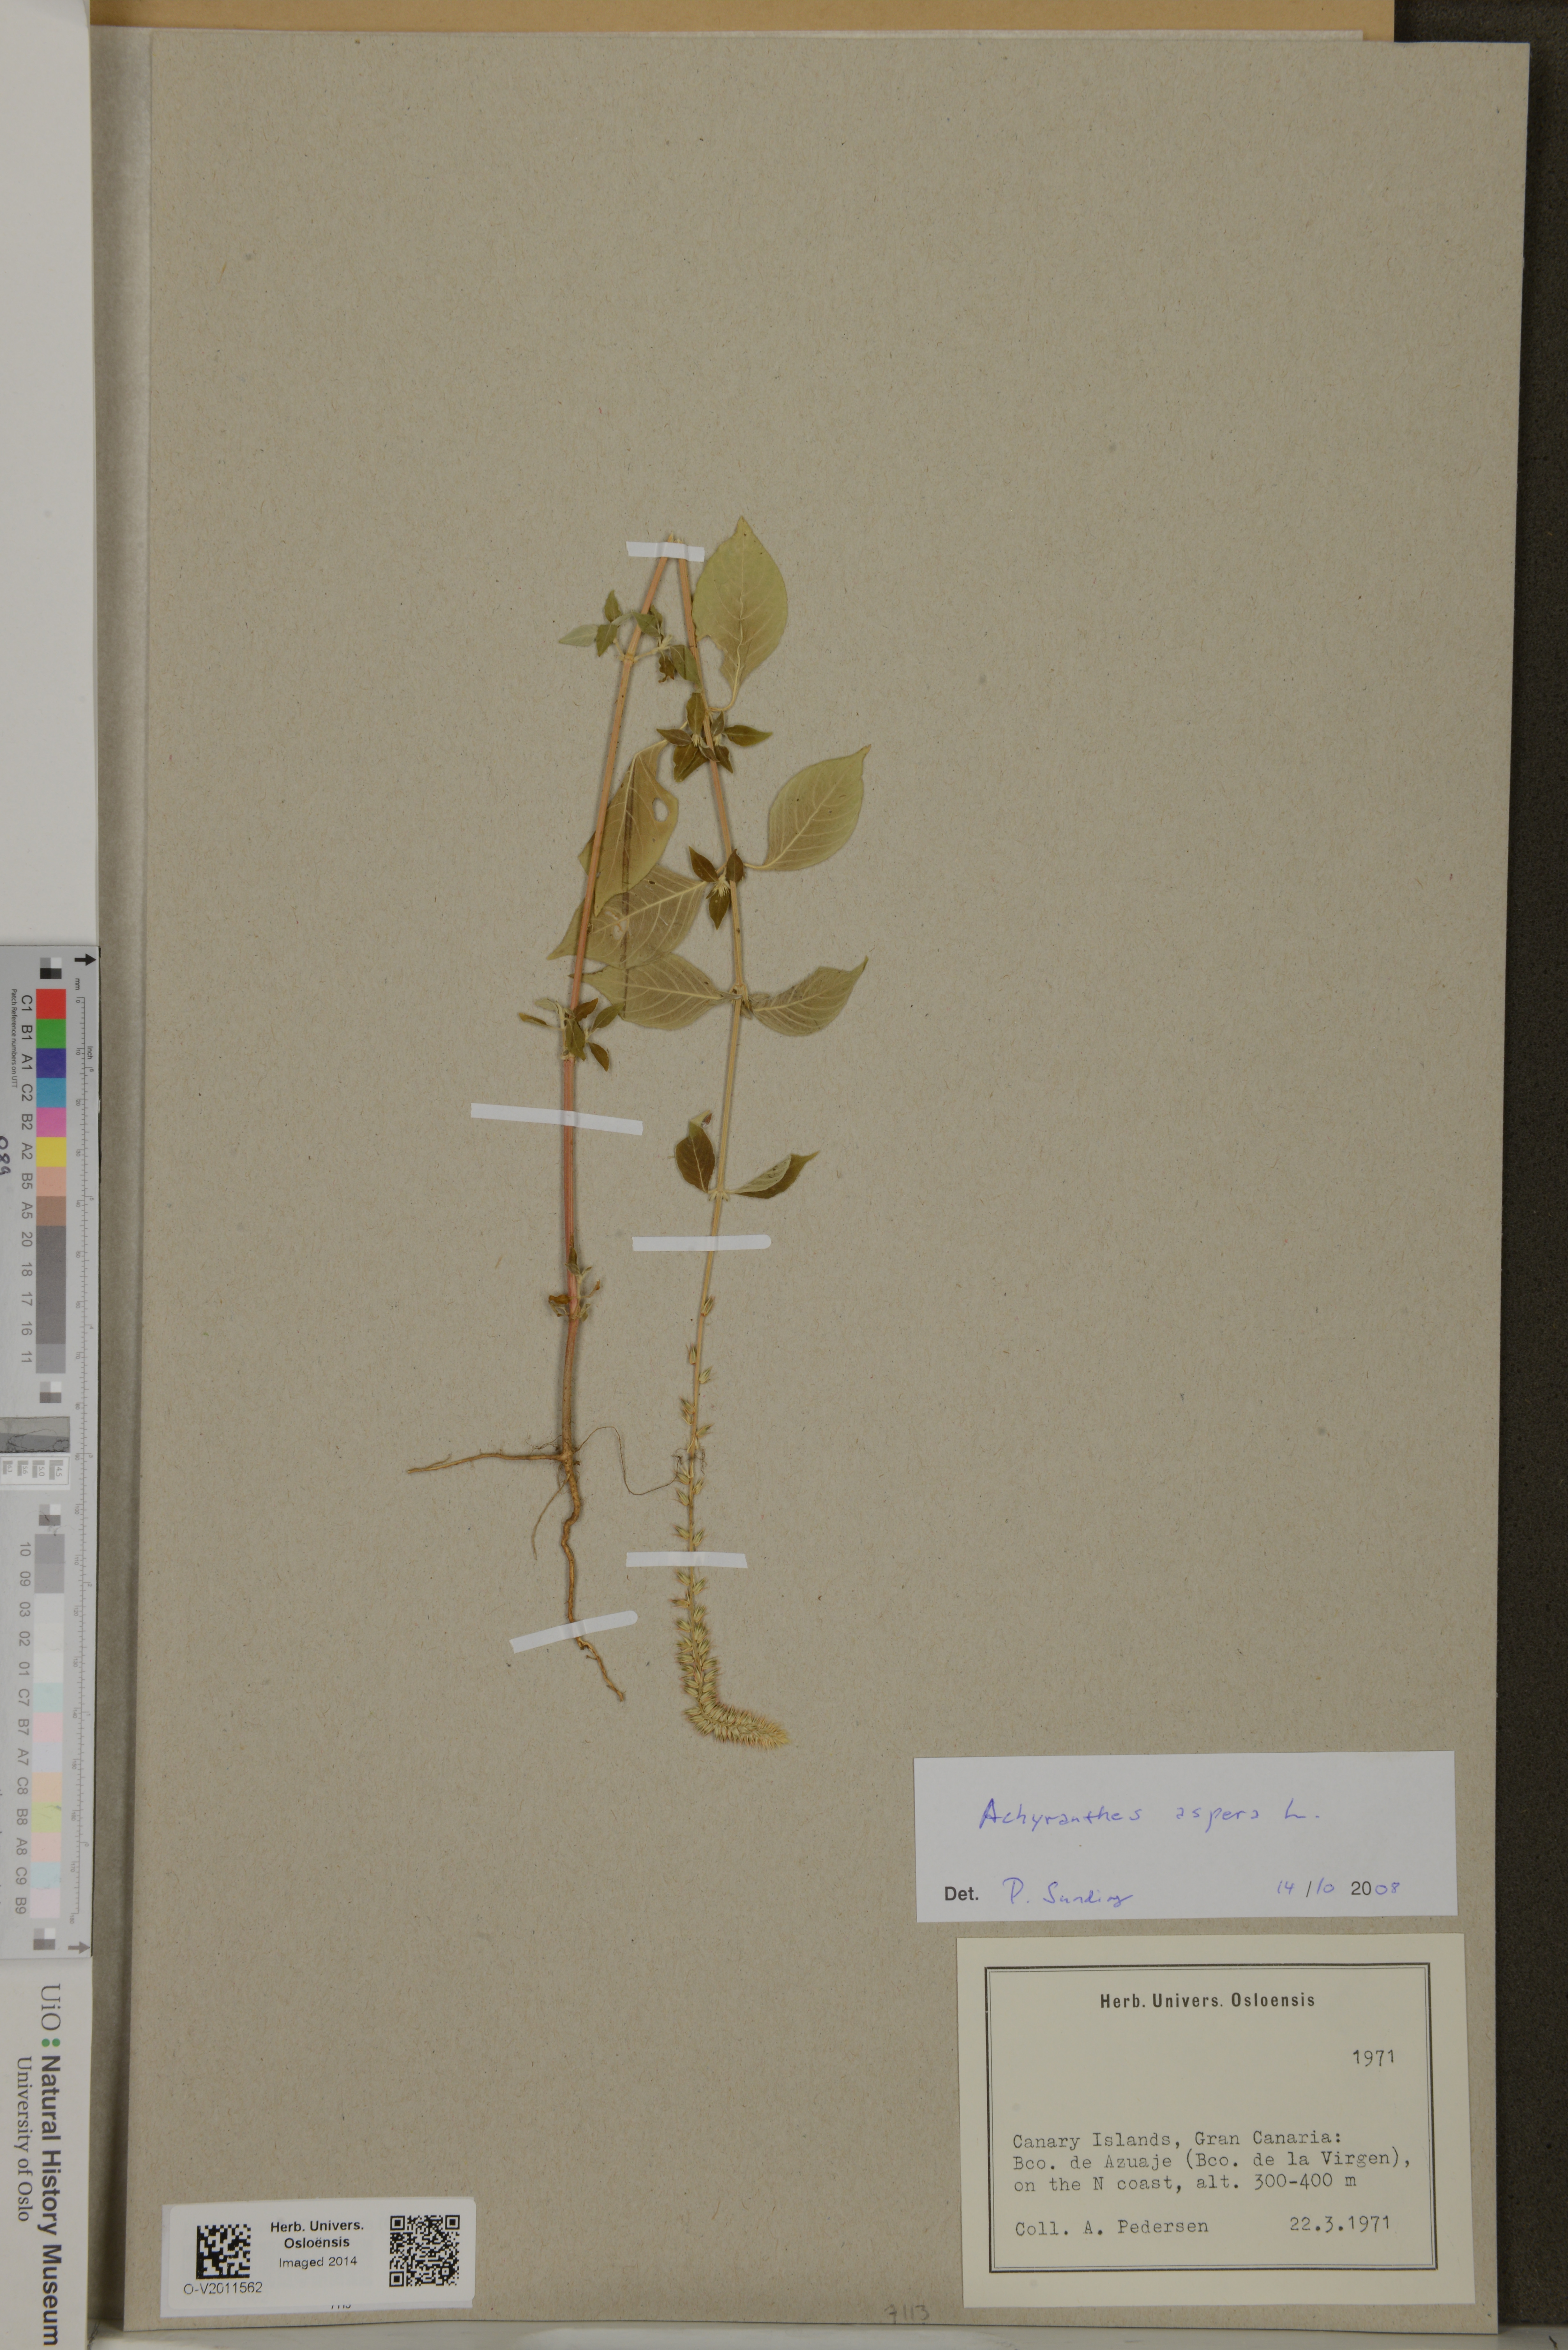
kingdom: Plantae
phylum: Tracheophyta
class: Magnoliopsida
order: Caryophyllales
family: Amaranthaceae
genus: Achyranthes
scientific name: Achyranthes aspera
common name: Devil's horsewhip
